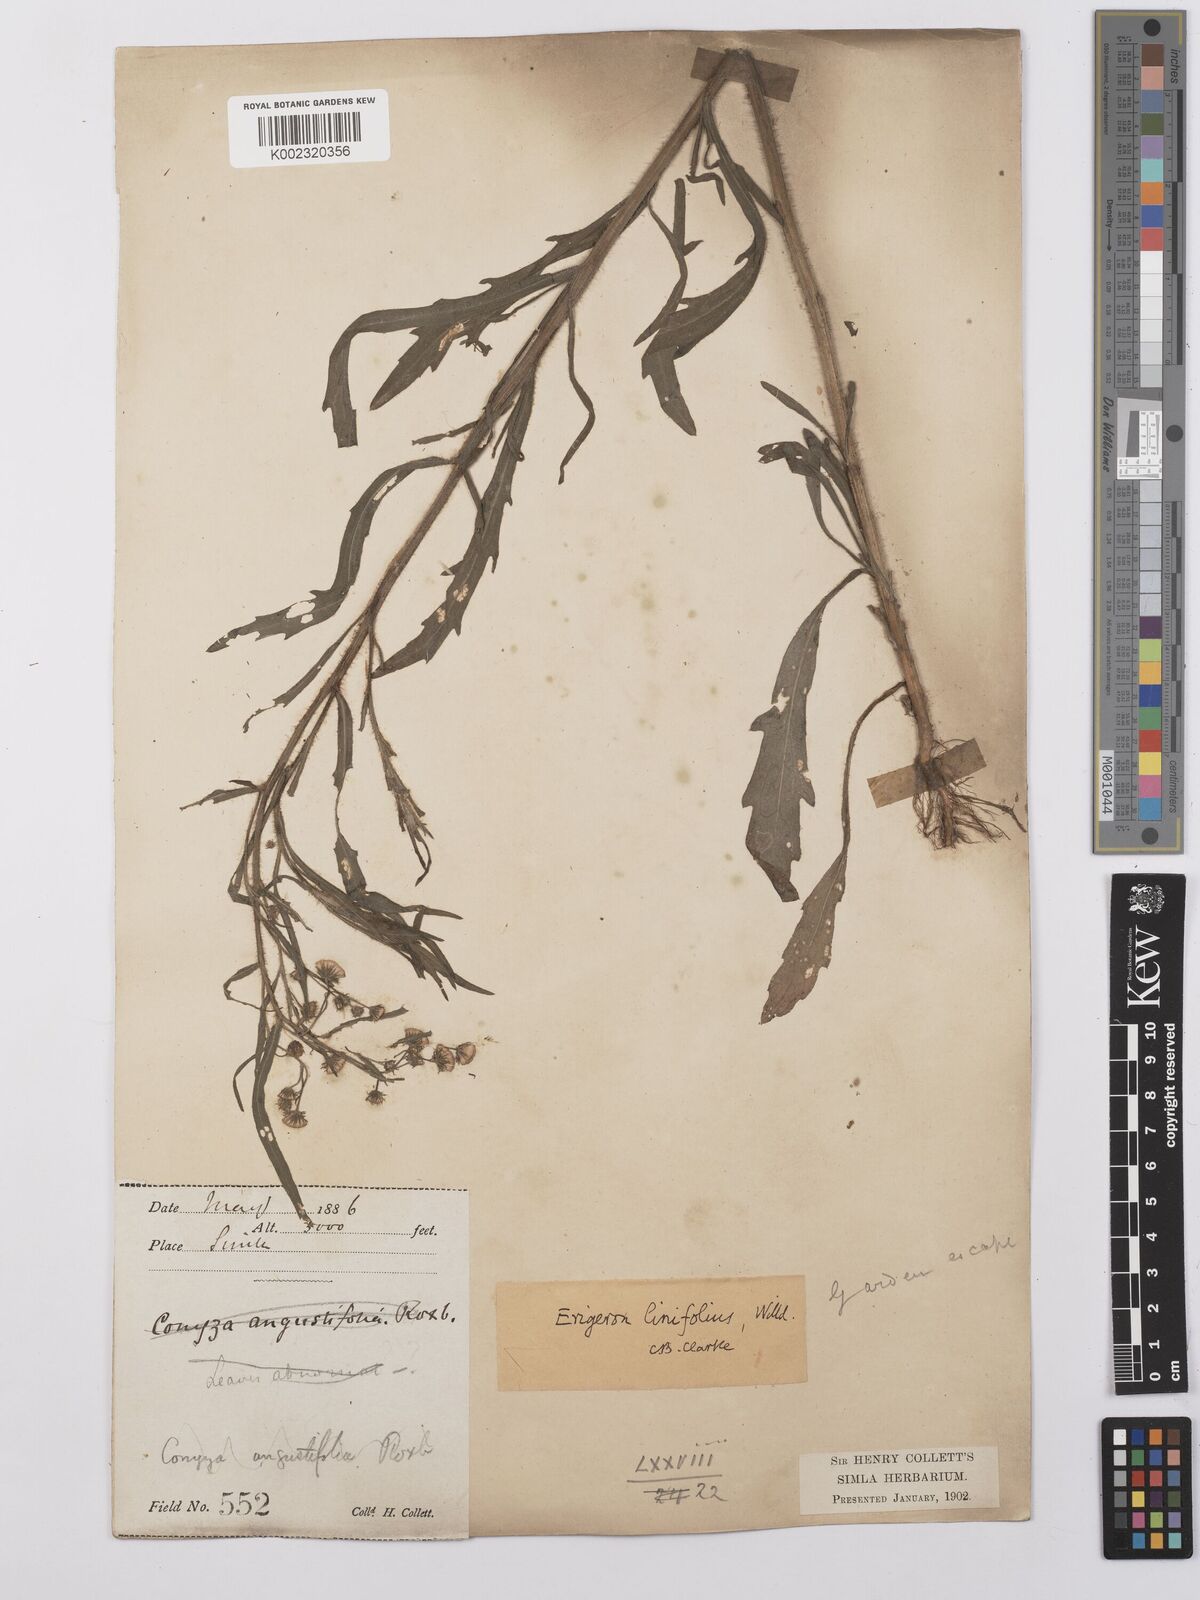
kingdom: Plantae
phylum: Tracheophyta
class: Magnoliopsida
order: Asterales
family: Asteraceae
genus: Erigeron
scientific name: Erigeron sumatrensis
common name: Daisy
